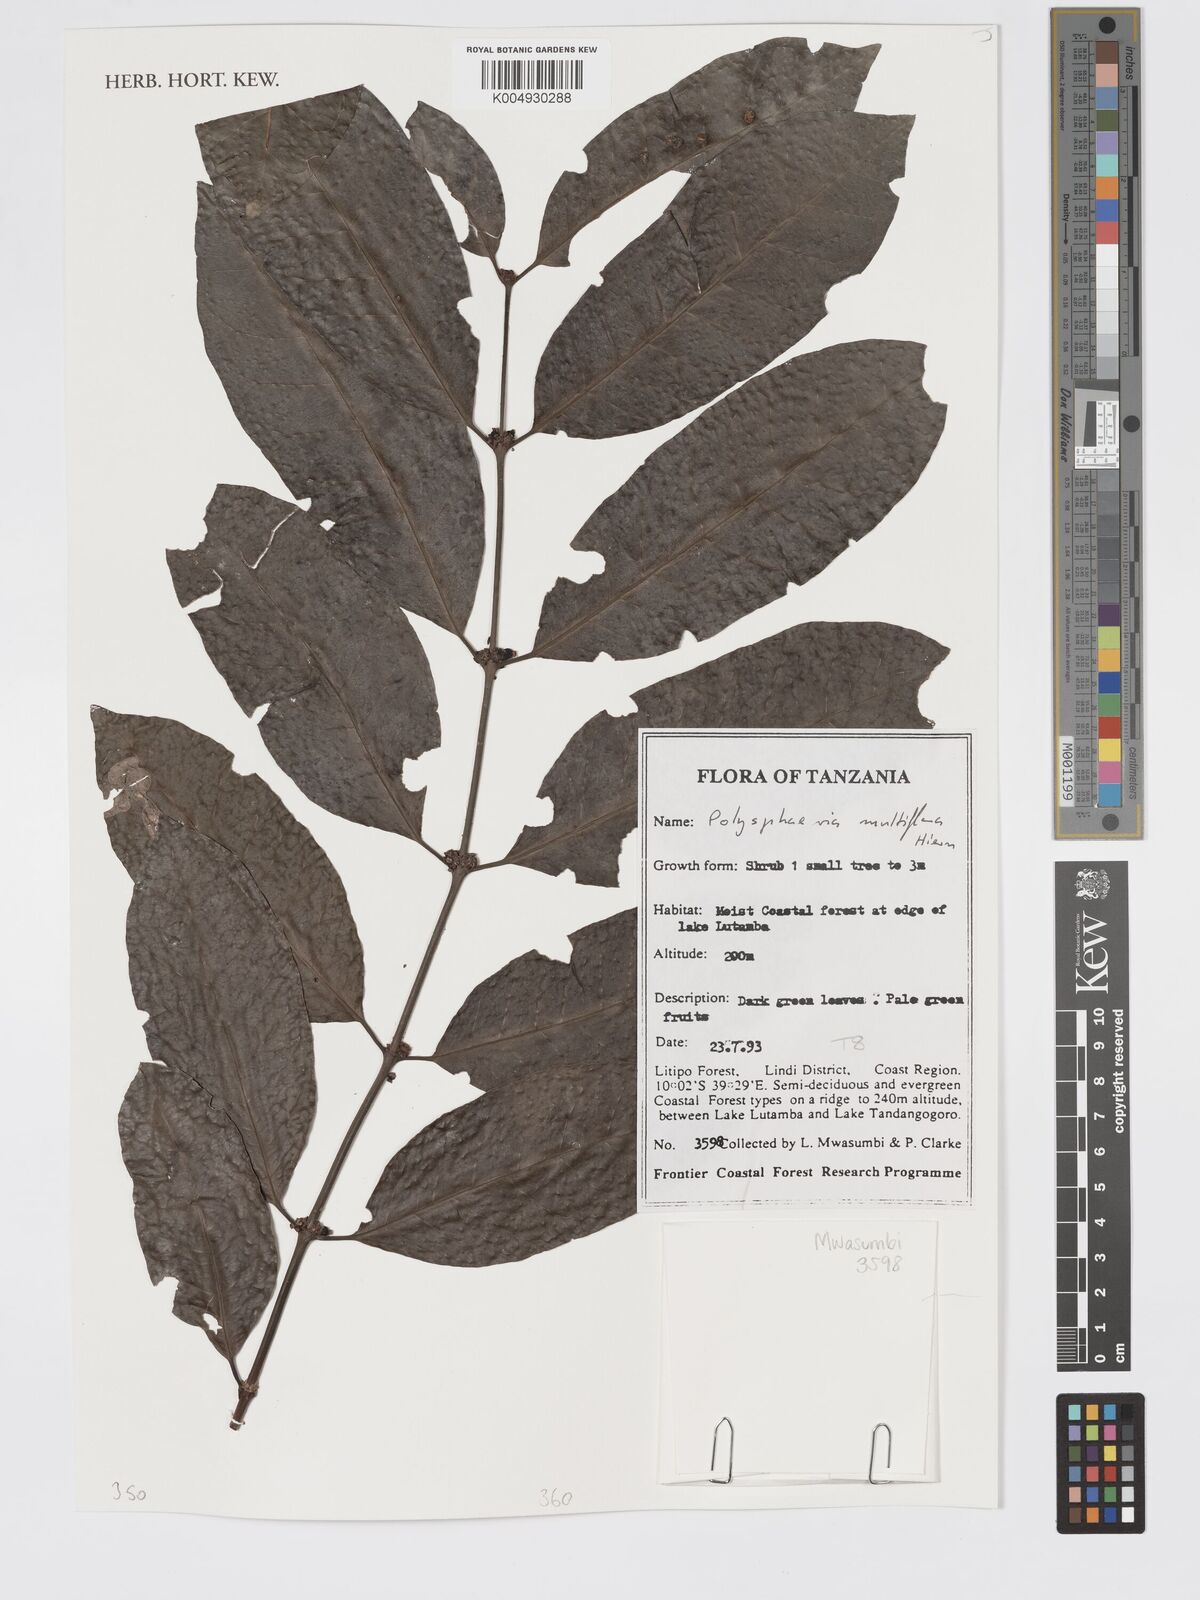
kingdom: Plantae
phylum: Tracheophyta
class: Magnoliopsida
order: Gentianales
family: Rubiaceae
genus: Polysphaeria
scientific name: Polysphaeria multiflora
